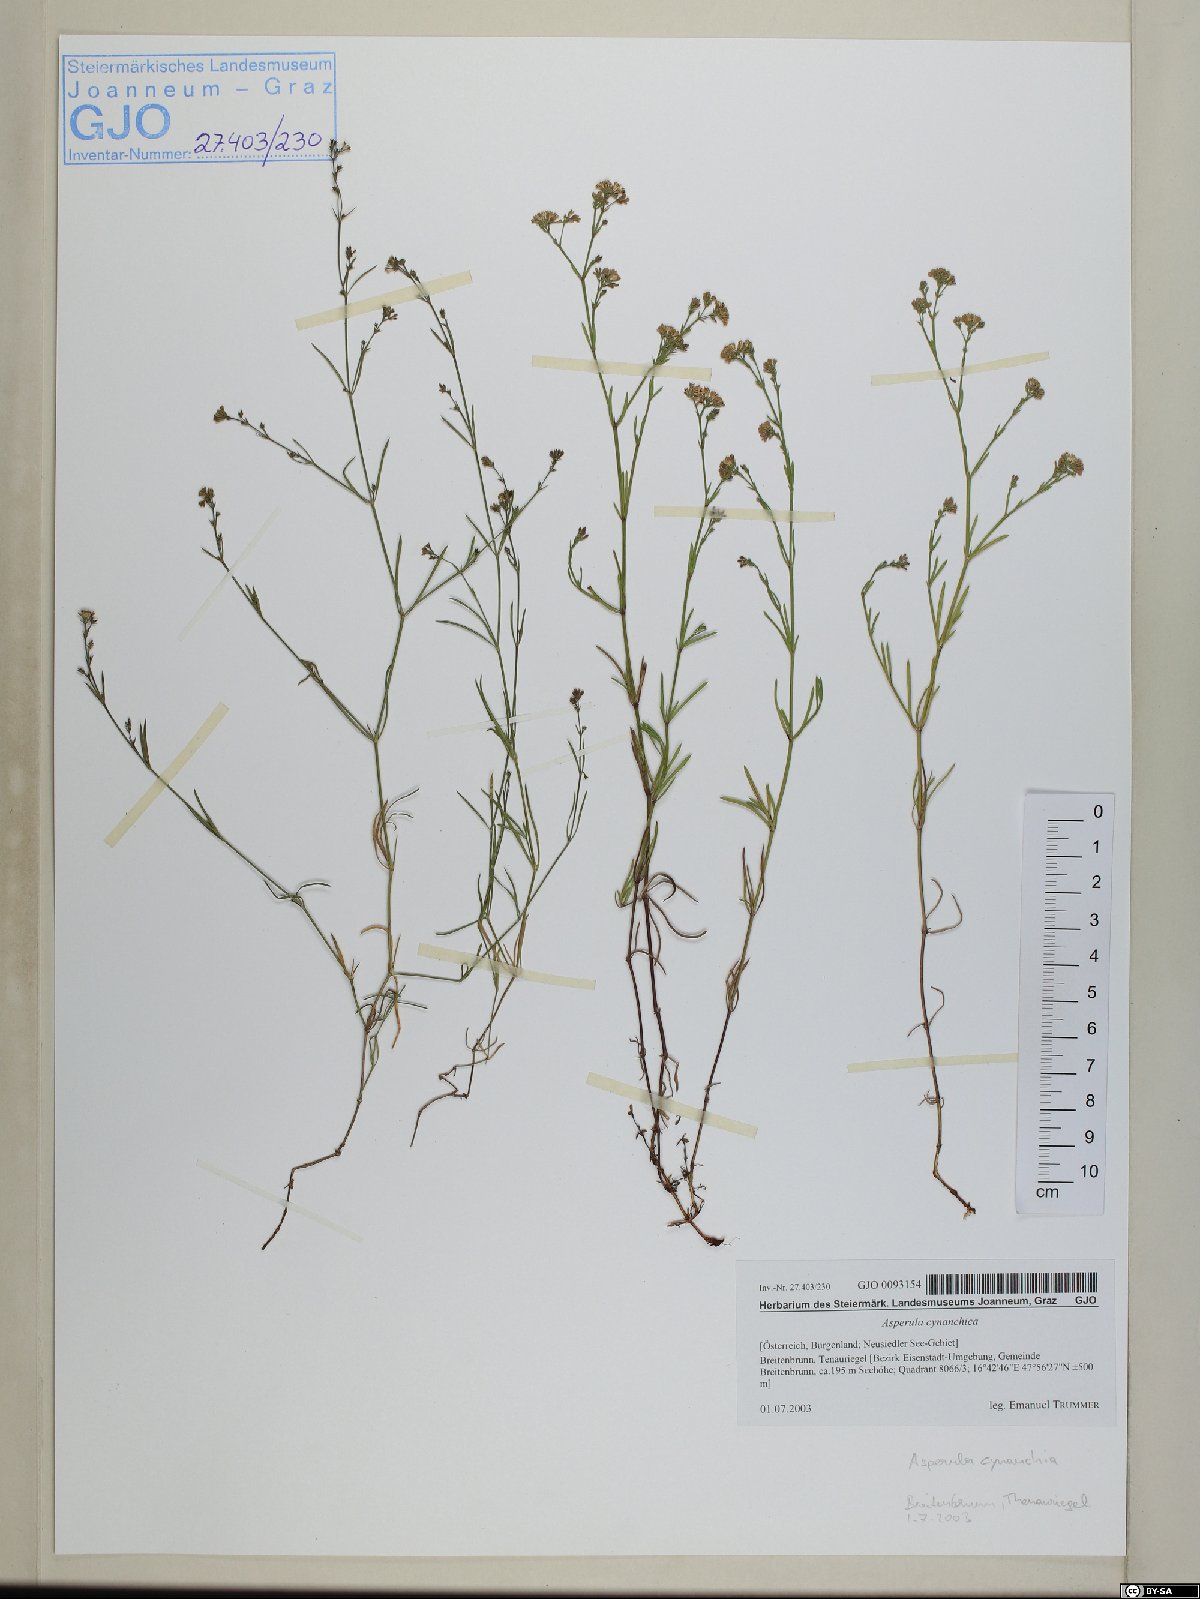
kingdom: Plantae
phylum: Tracheophyta
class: Magnoliopsida
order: Gentianales
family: Rubiaceae
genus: Cynanchica
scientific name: Cynanchica pyrenaica
